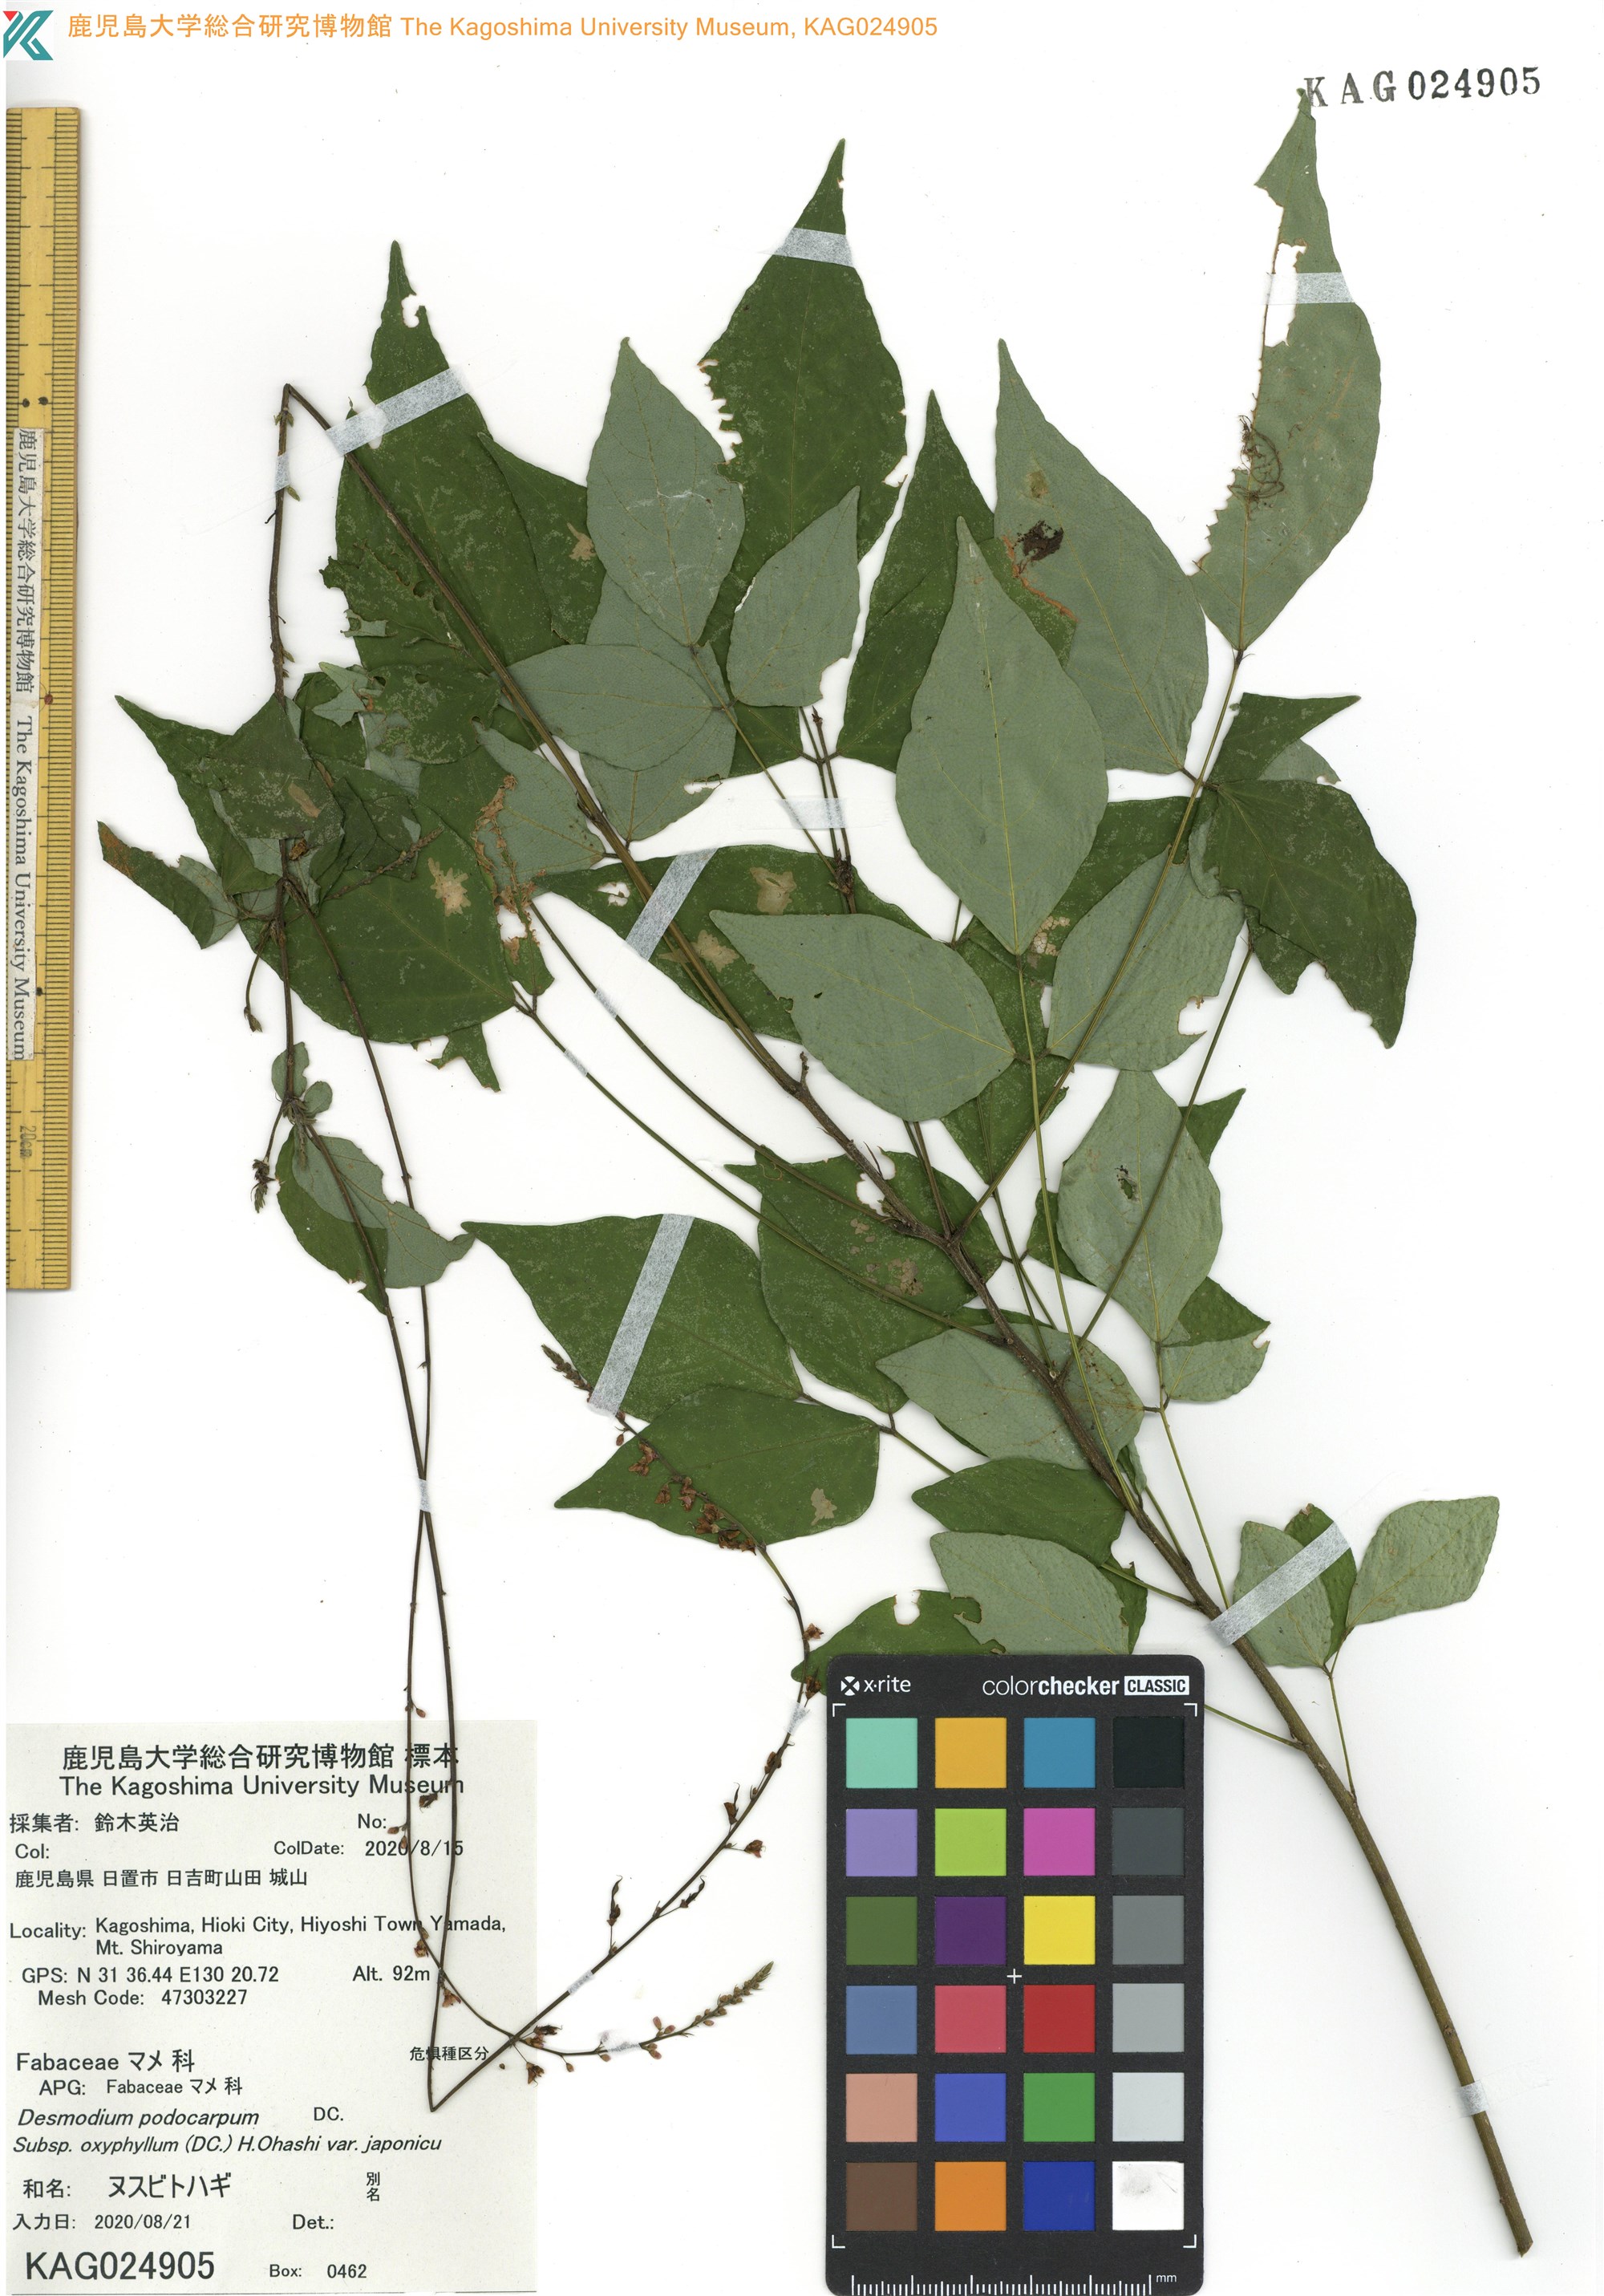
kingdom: Plantae
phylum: Tracheophyta
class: Magnoliopsida
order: Fabales
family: Fabaceae
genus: Hylodesmum
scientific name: Hylodesmum podocarpum
